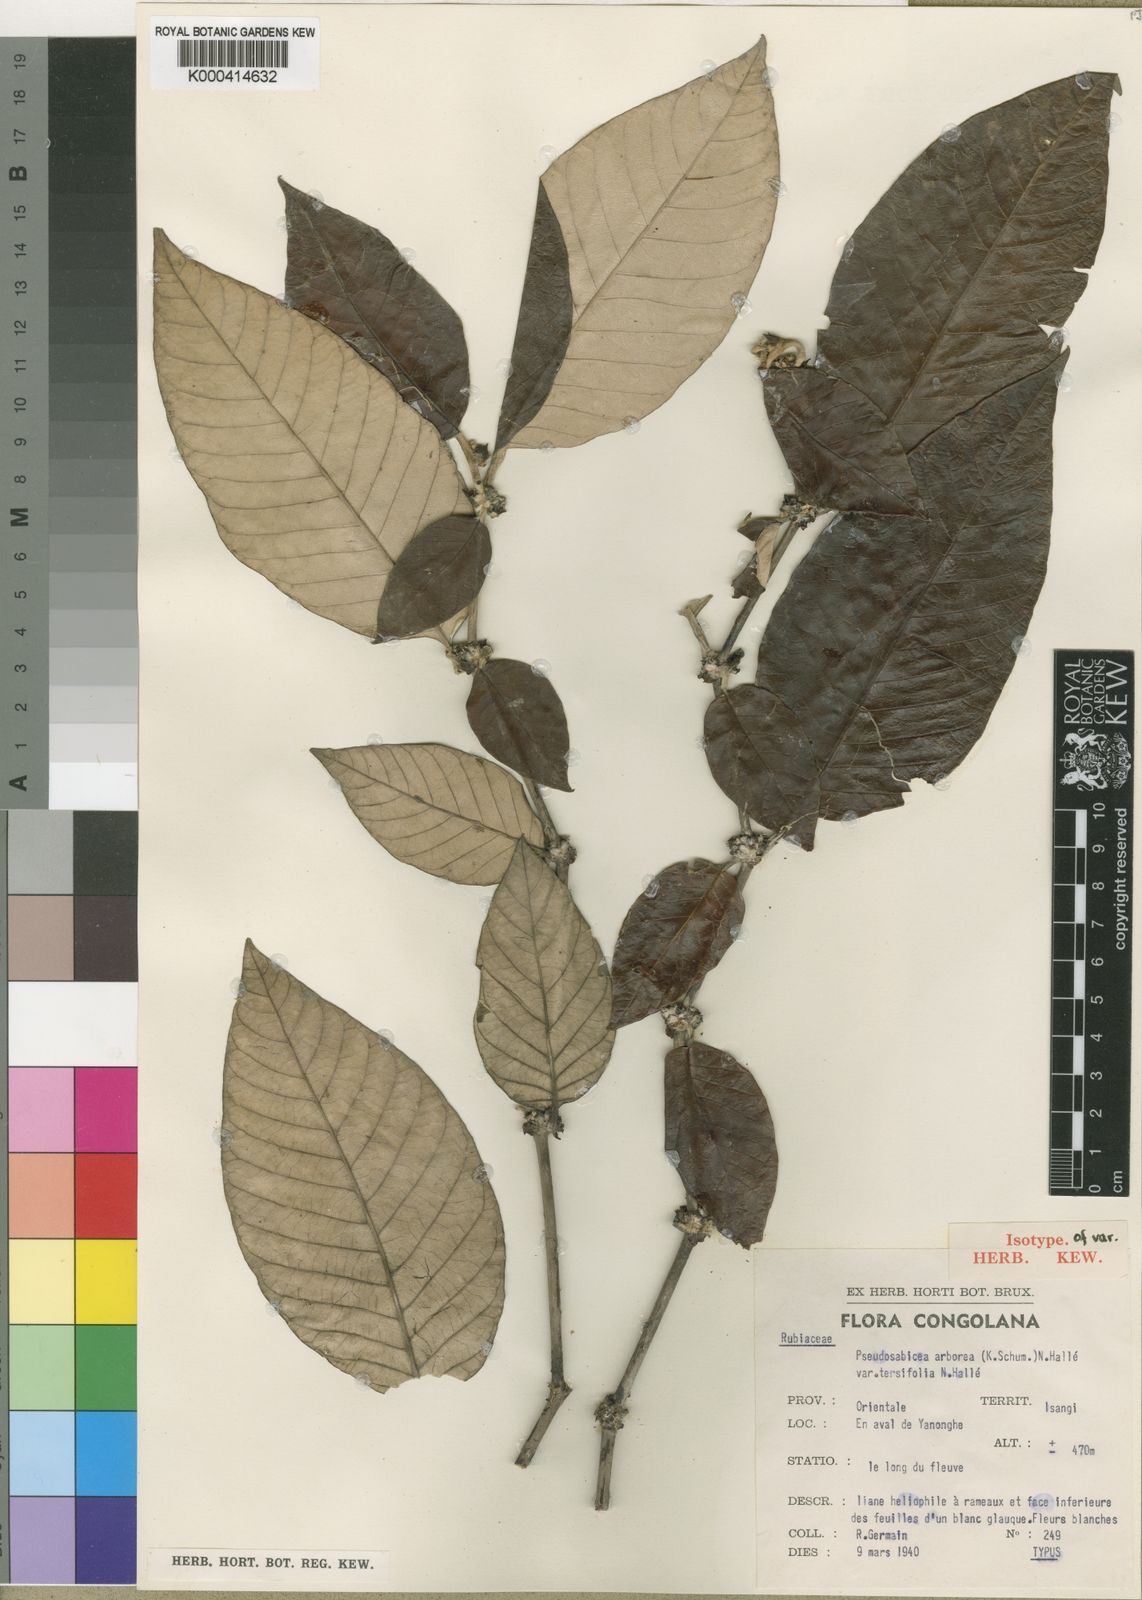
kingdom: Plantae
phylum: Tracheophyta
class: Magnoliopsida
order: Gentianales
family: Rubiaceae
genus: Sabicea
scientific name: Sabicea
